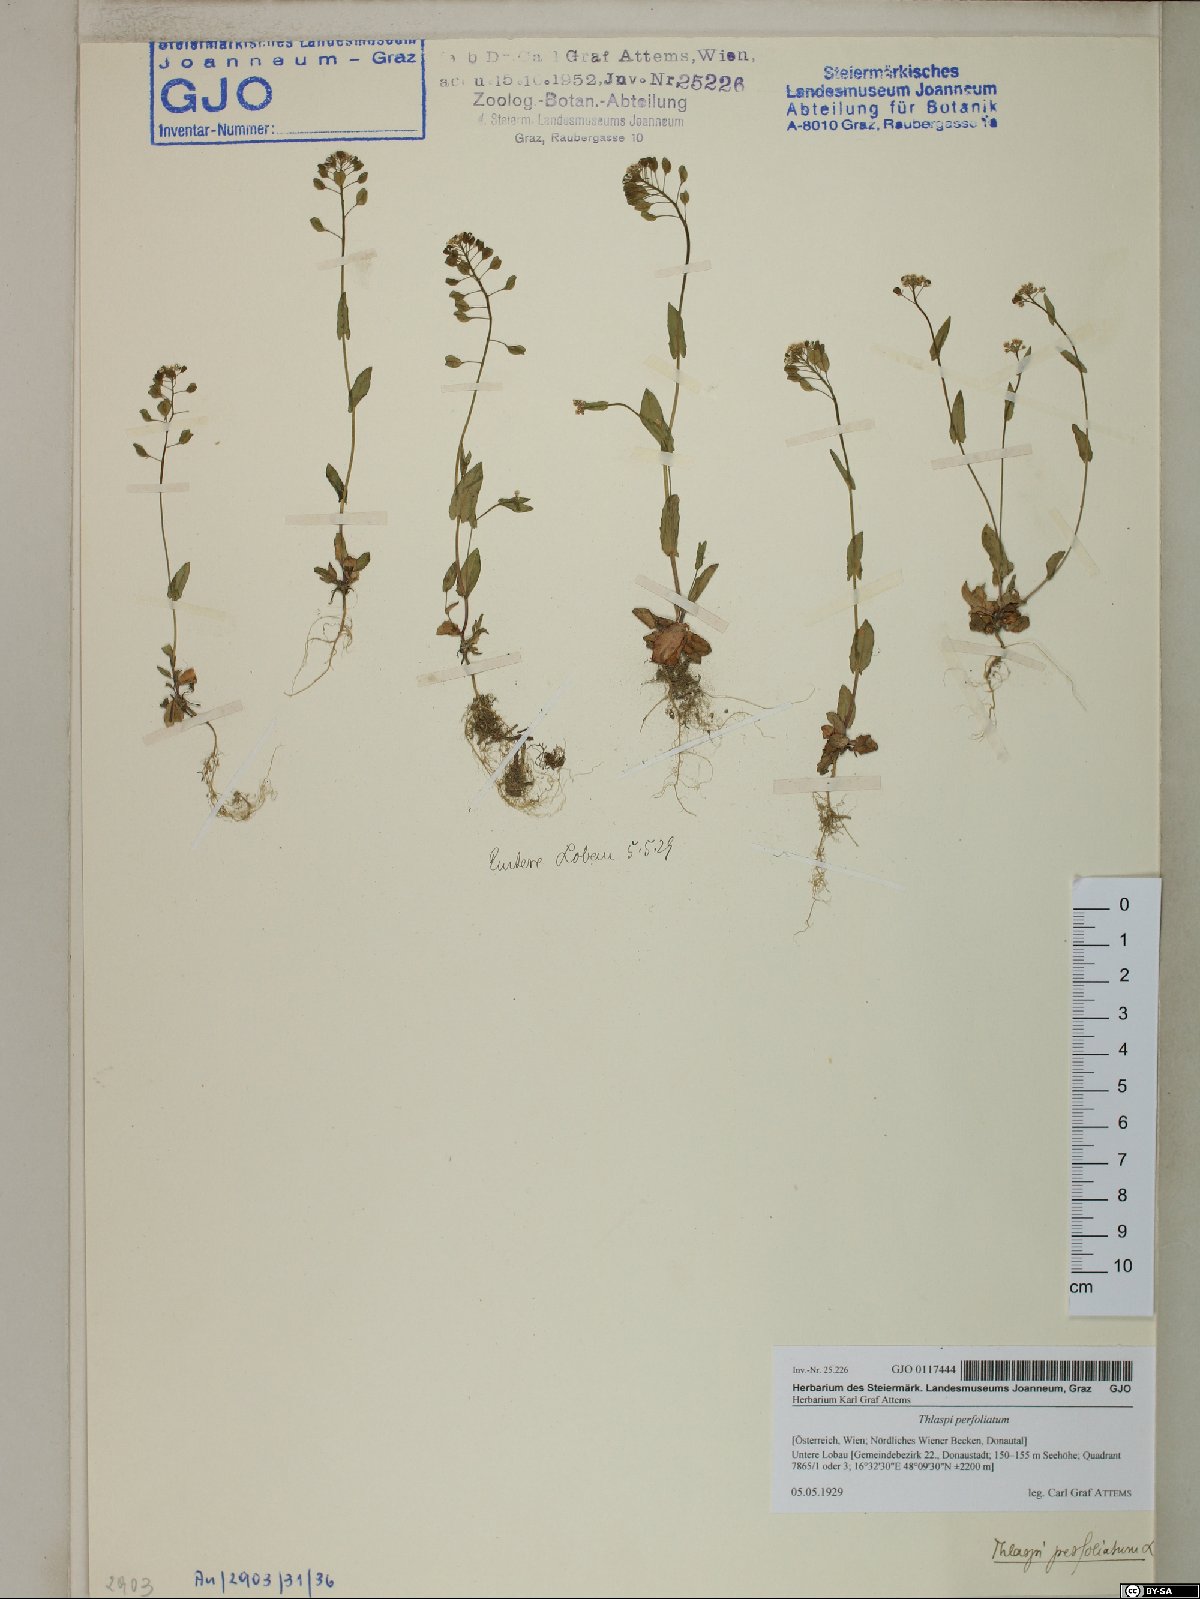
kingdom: Plantae
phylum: Tracheophyta
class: Magnoliopsida
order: Brassicales
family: Brassicaceae
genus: Noccaea
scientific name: Noccaea perfoliata
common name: Perfoliate pennycress
